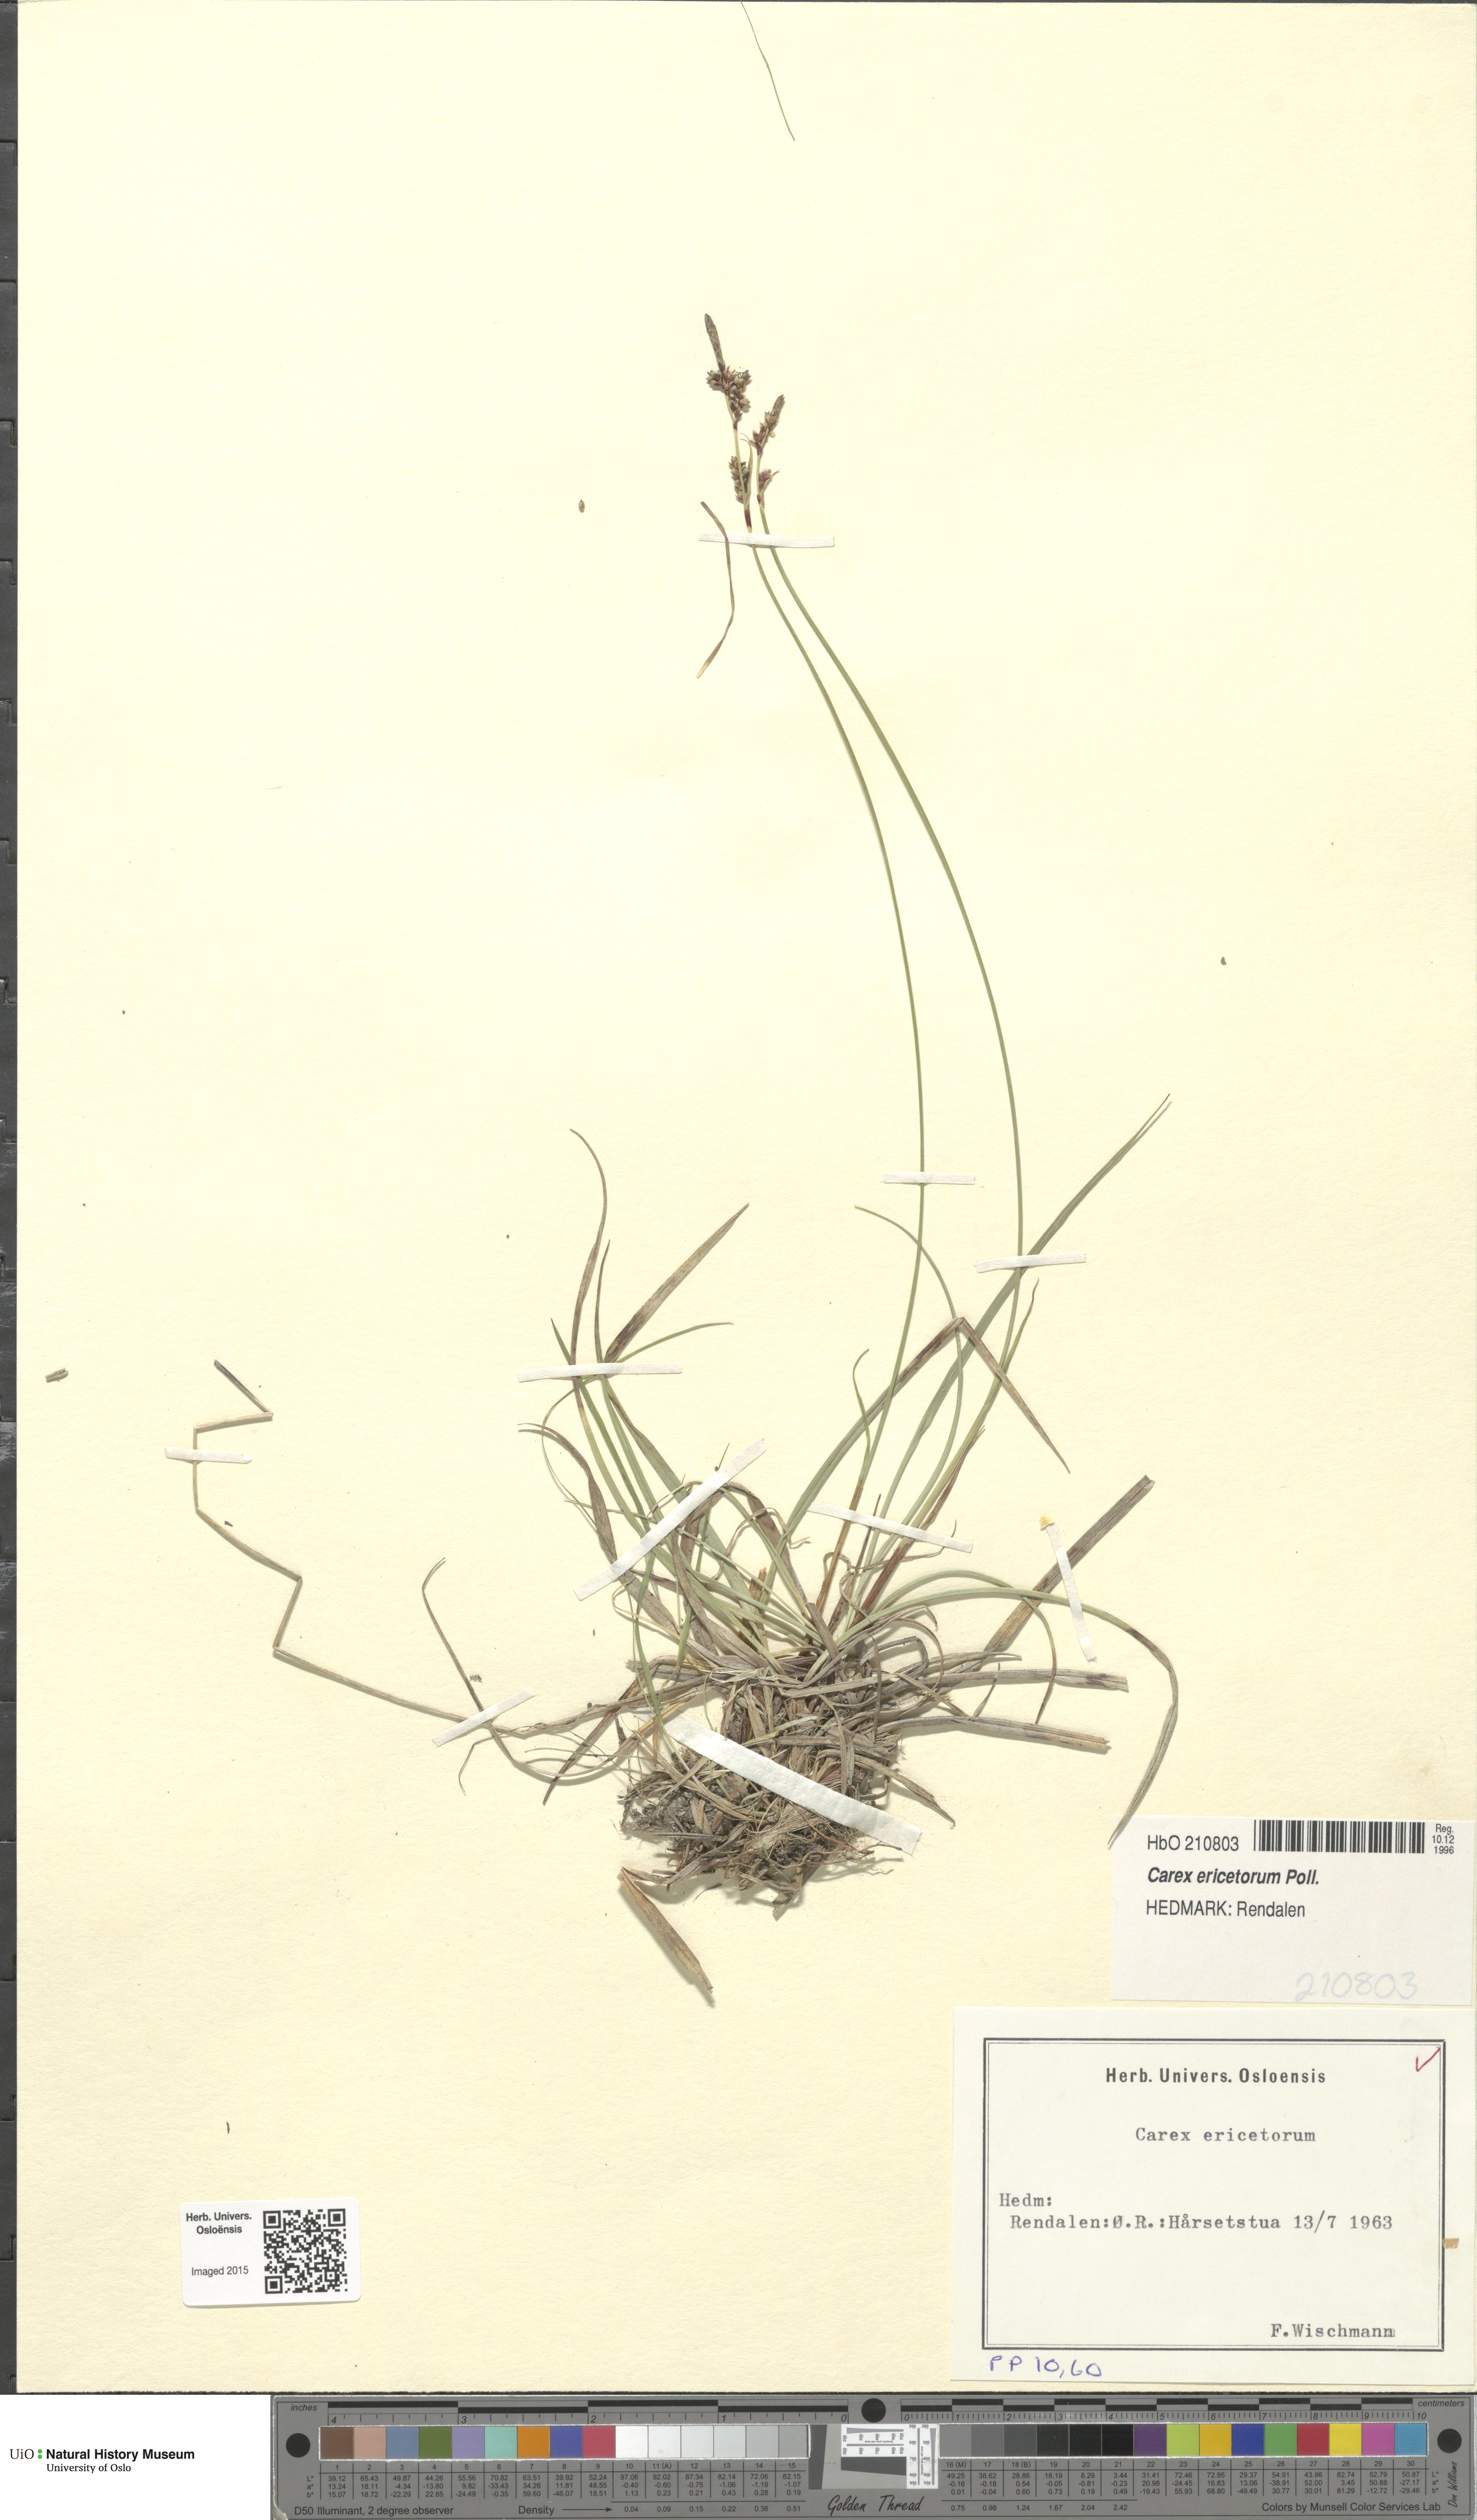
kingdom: Plantae
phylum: Tracheophyta
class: Liliopsida
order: Poales
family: Cyperaceae
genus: Carex
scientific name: Carex ericetorum
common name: Rare spring-sedge
